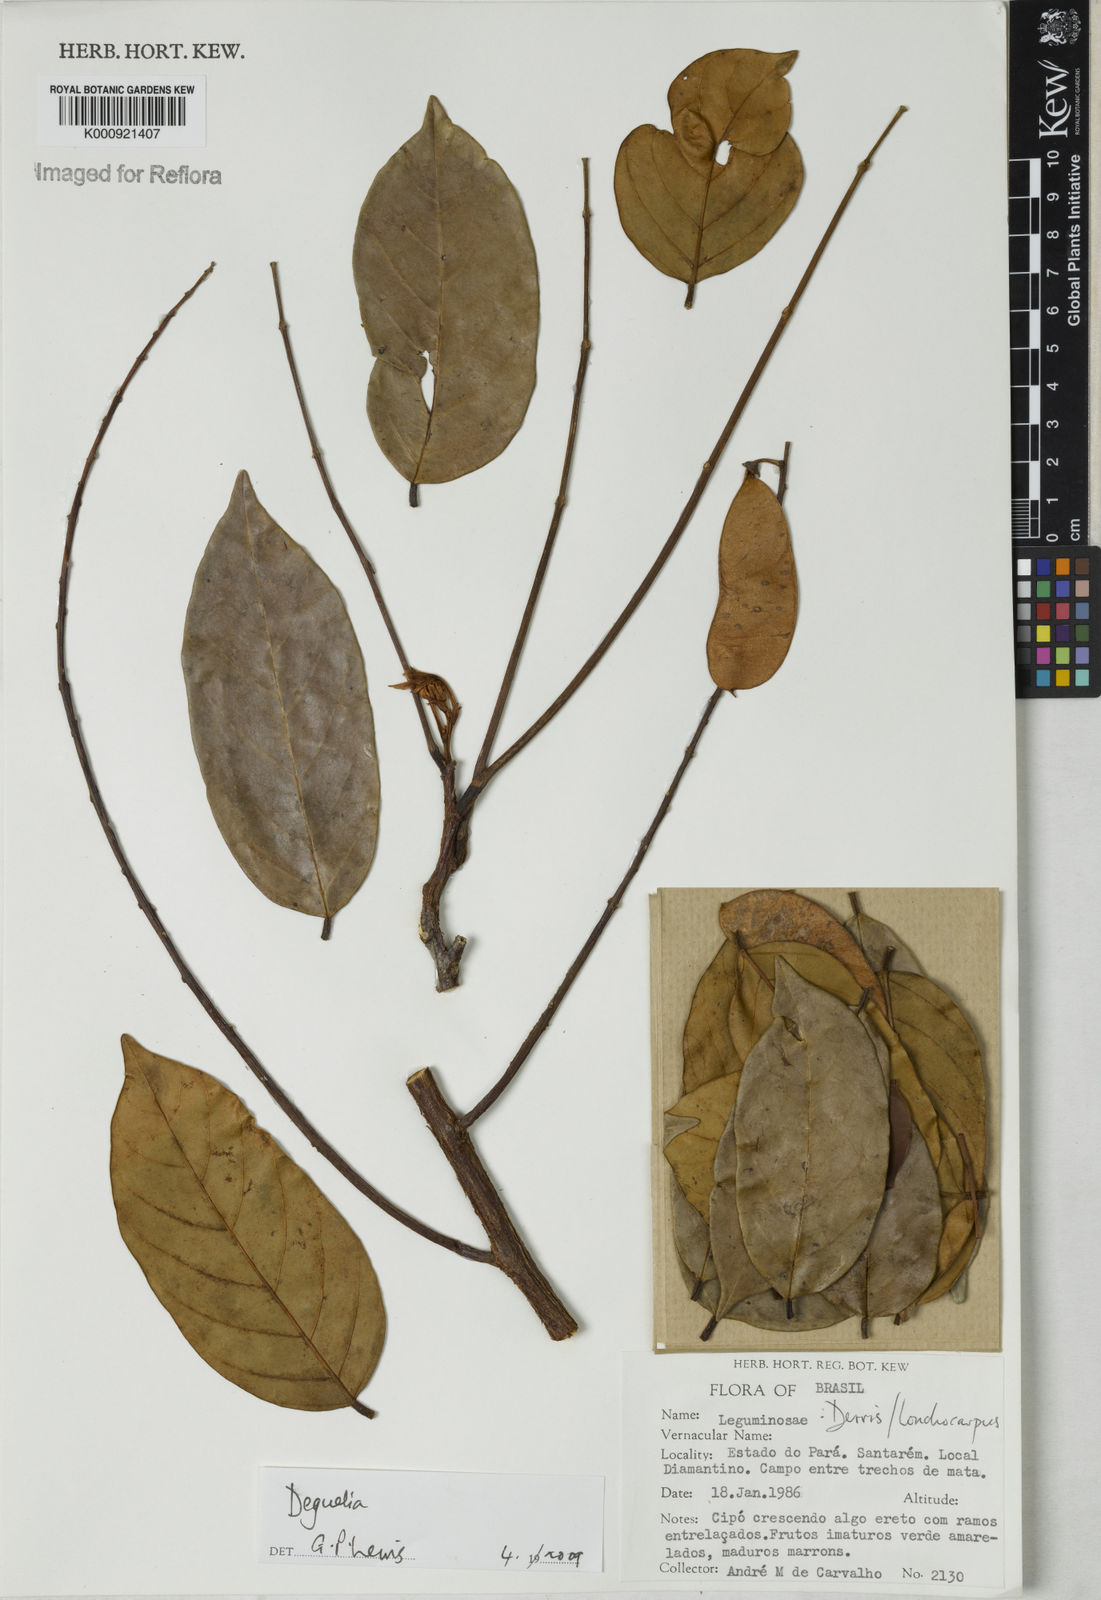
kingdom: Plantae
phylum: Tracheophyta
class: Magnoliopsida
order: Fabales
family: Fabaceae
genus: Deguelia
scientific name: Deguelia
